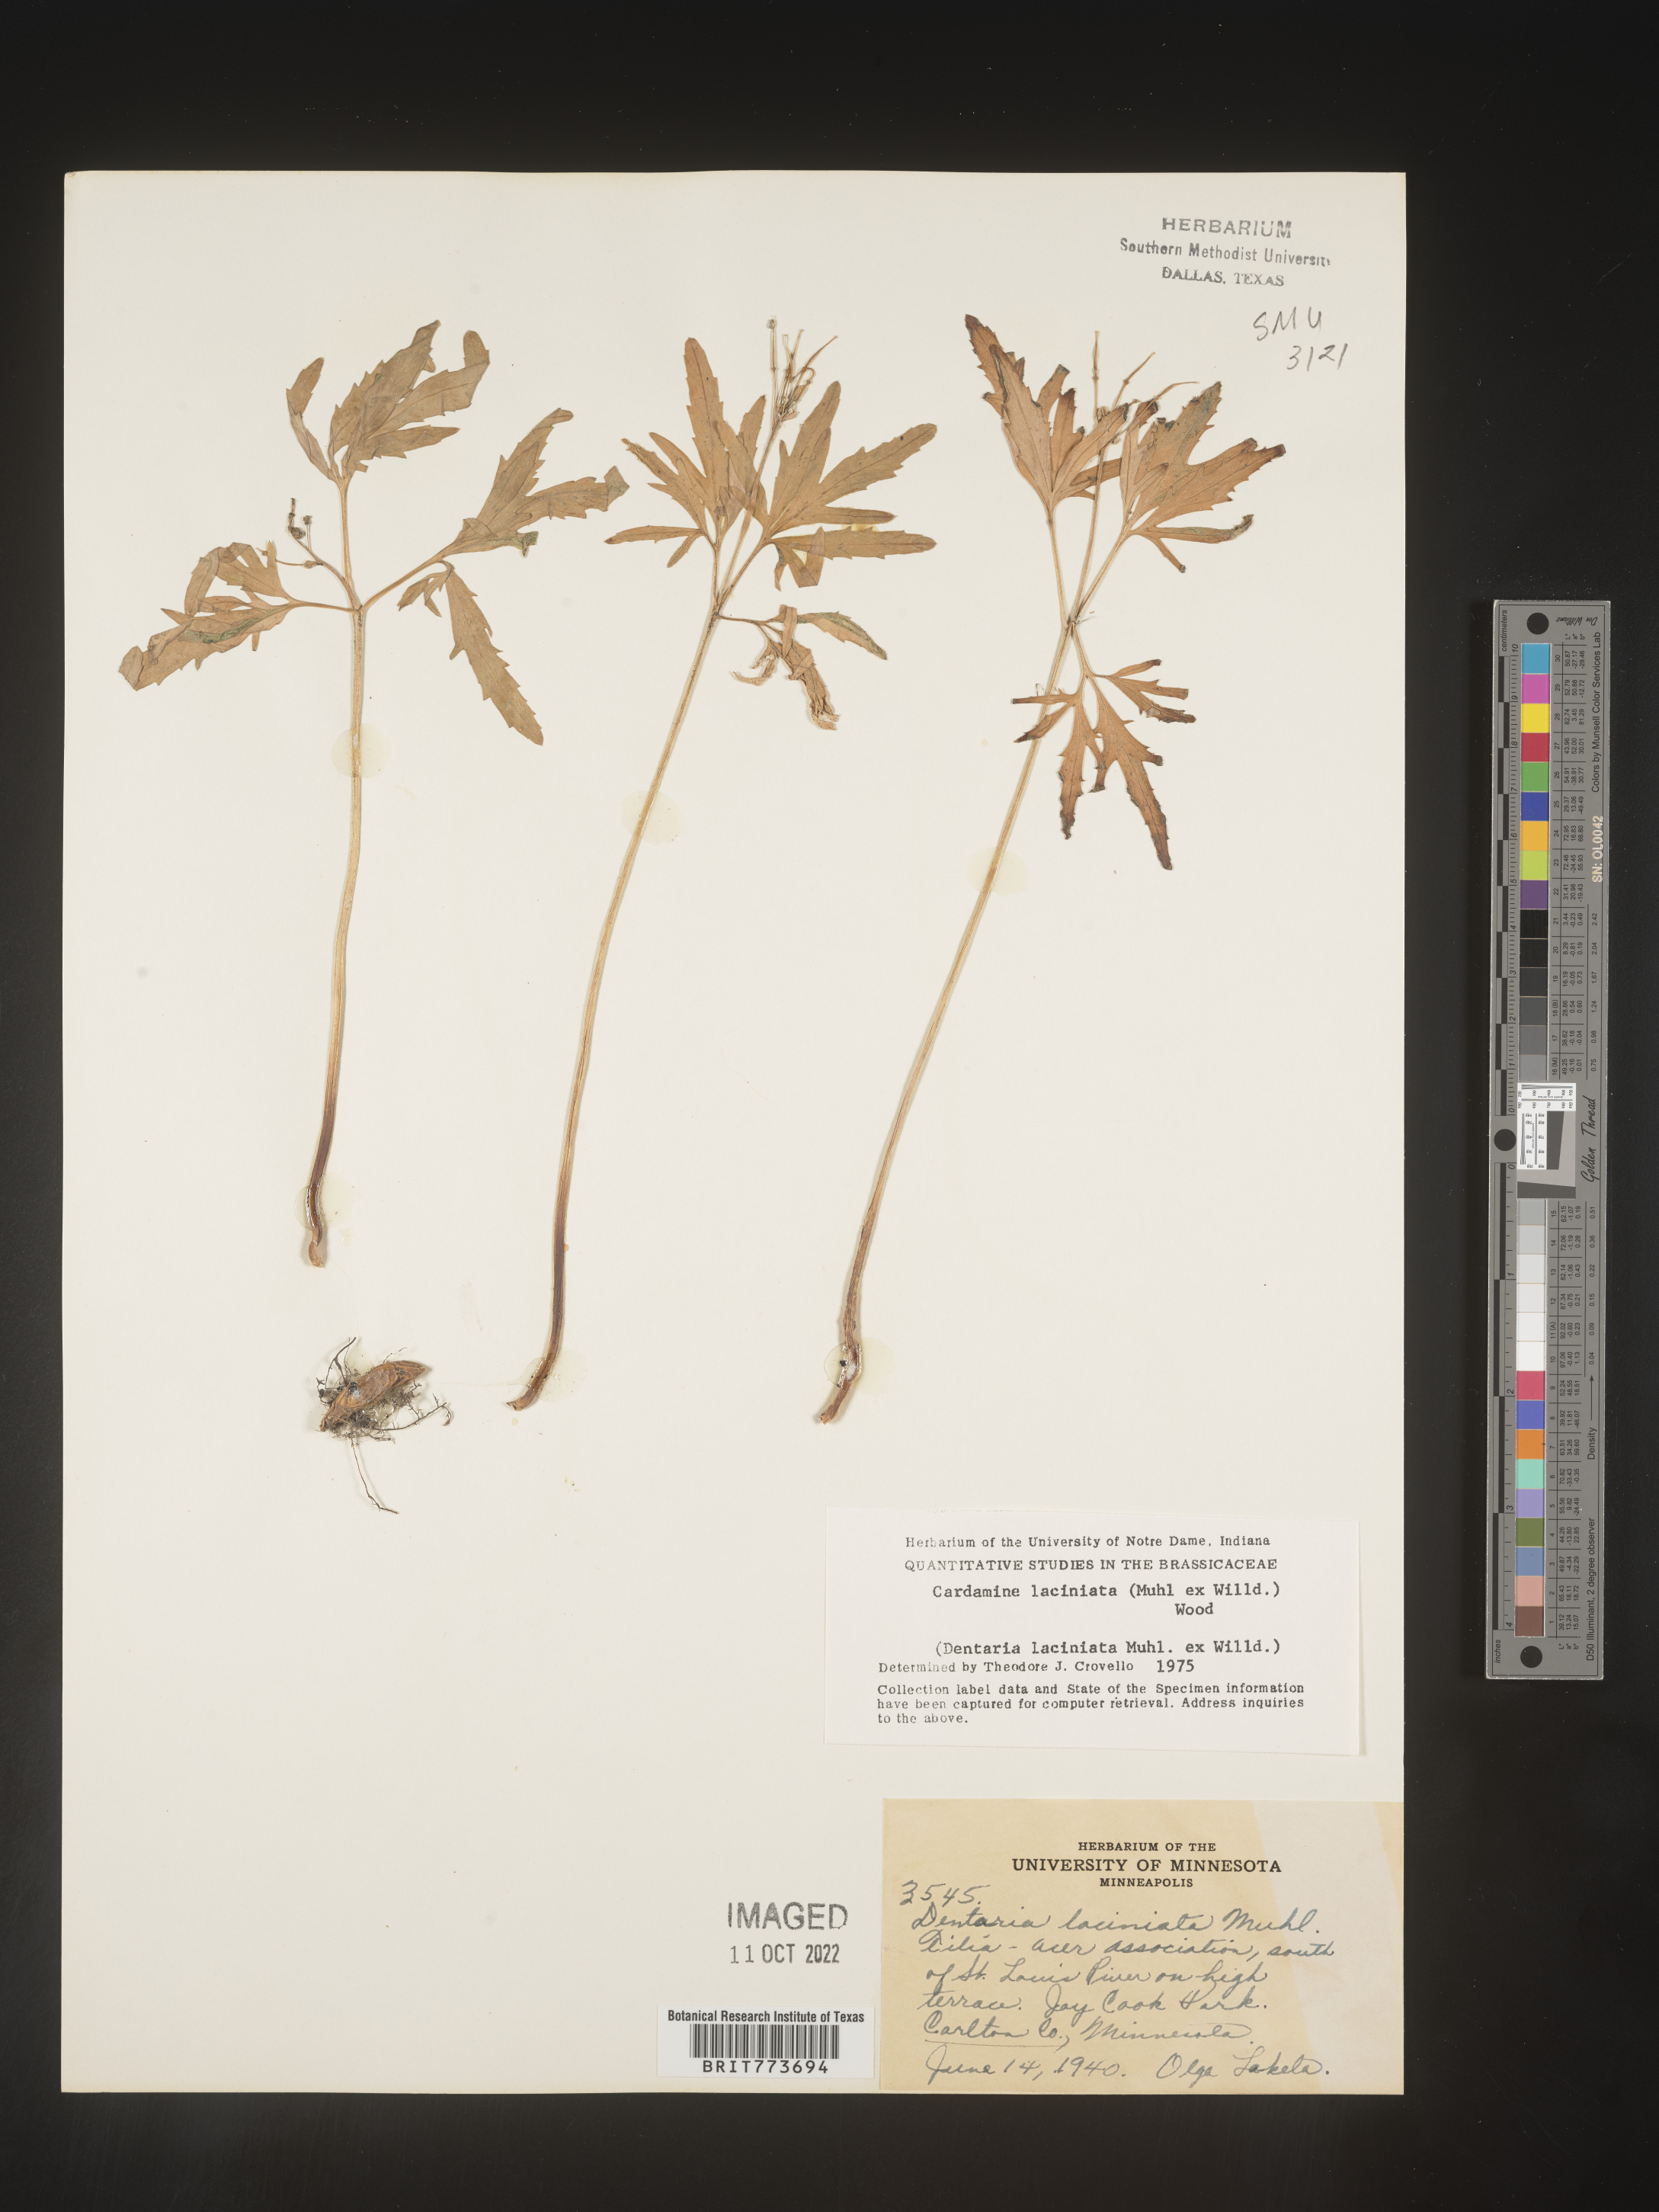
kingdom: Plantae
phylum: Tracheophyta
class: Magnoliopsida
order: Brassicales
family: Brassicaceae
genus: Rorippa
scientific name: Rorippa laciniata
